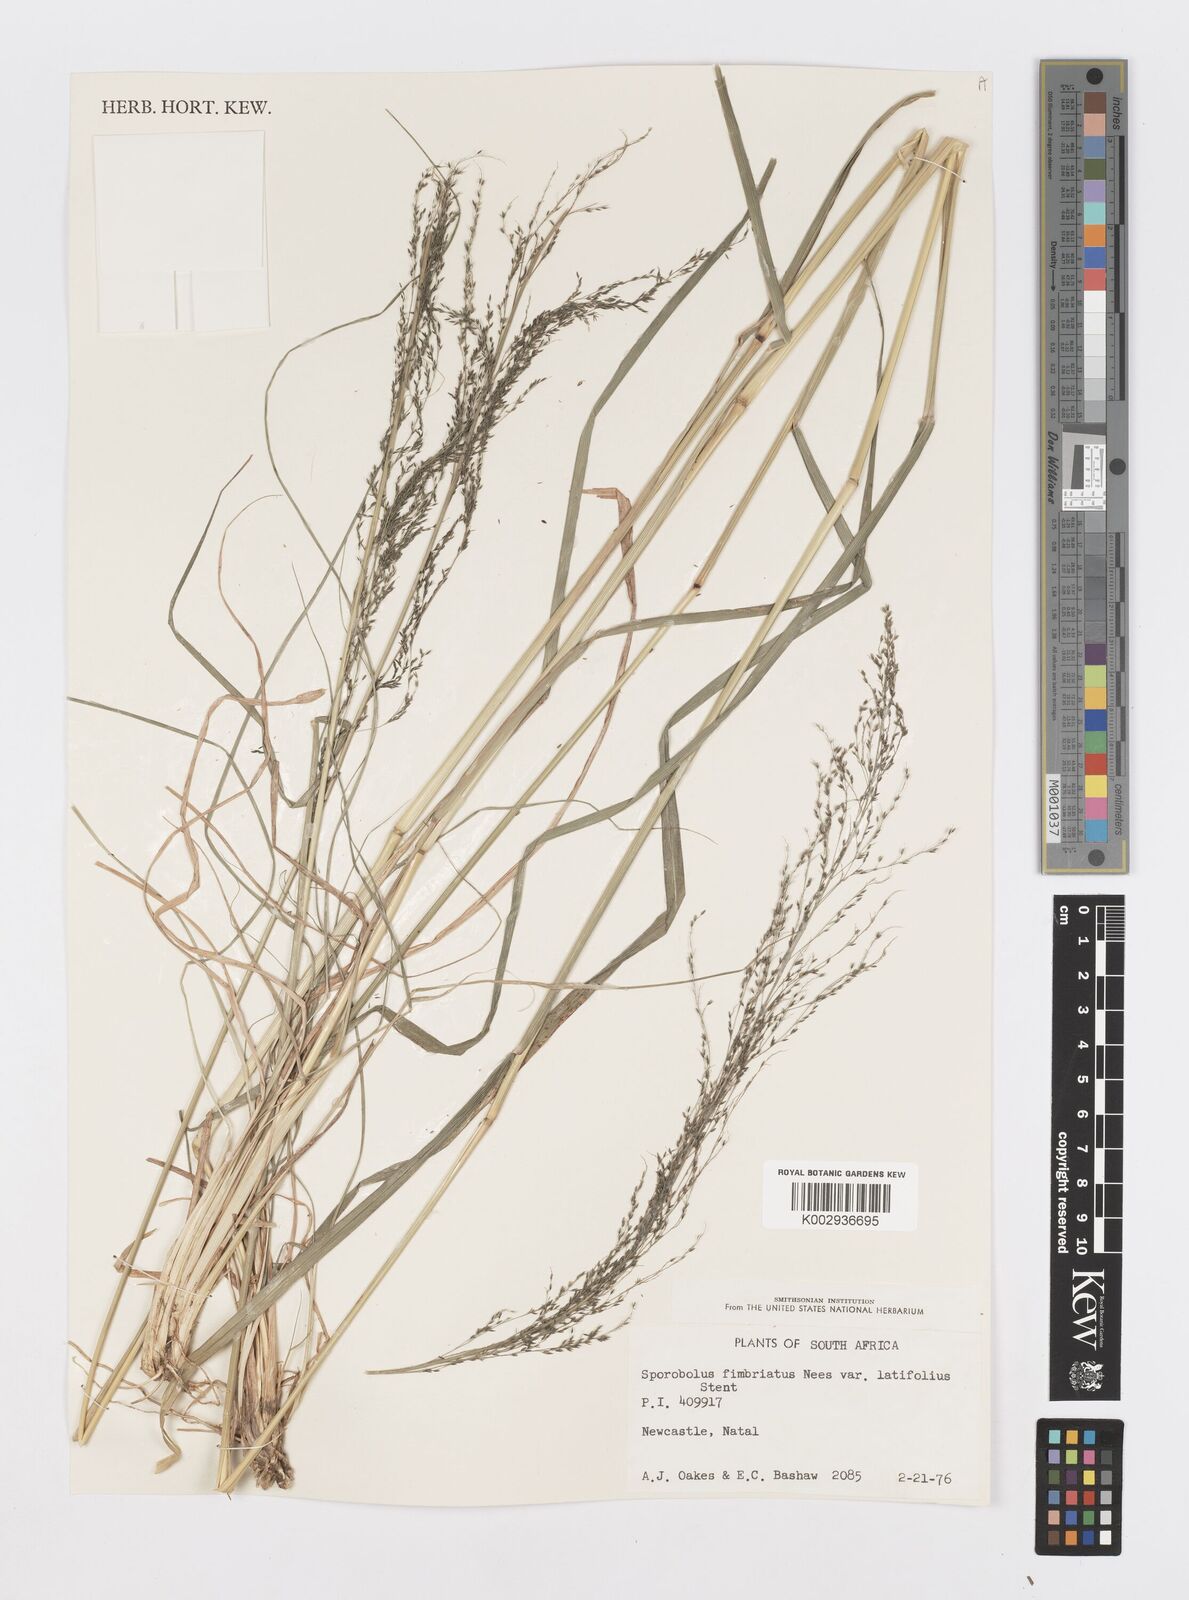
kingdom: Plantae
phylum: Tracheophyta
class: Liliopsida
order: Poales
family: Poaceae
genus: Sporobolus
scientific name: Sporobolus fimbriatus
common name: Fringed dropseed
